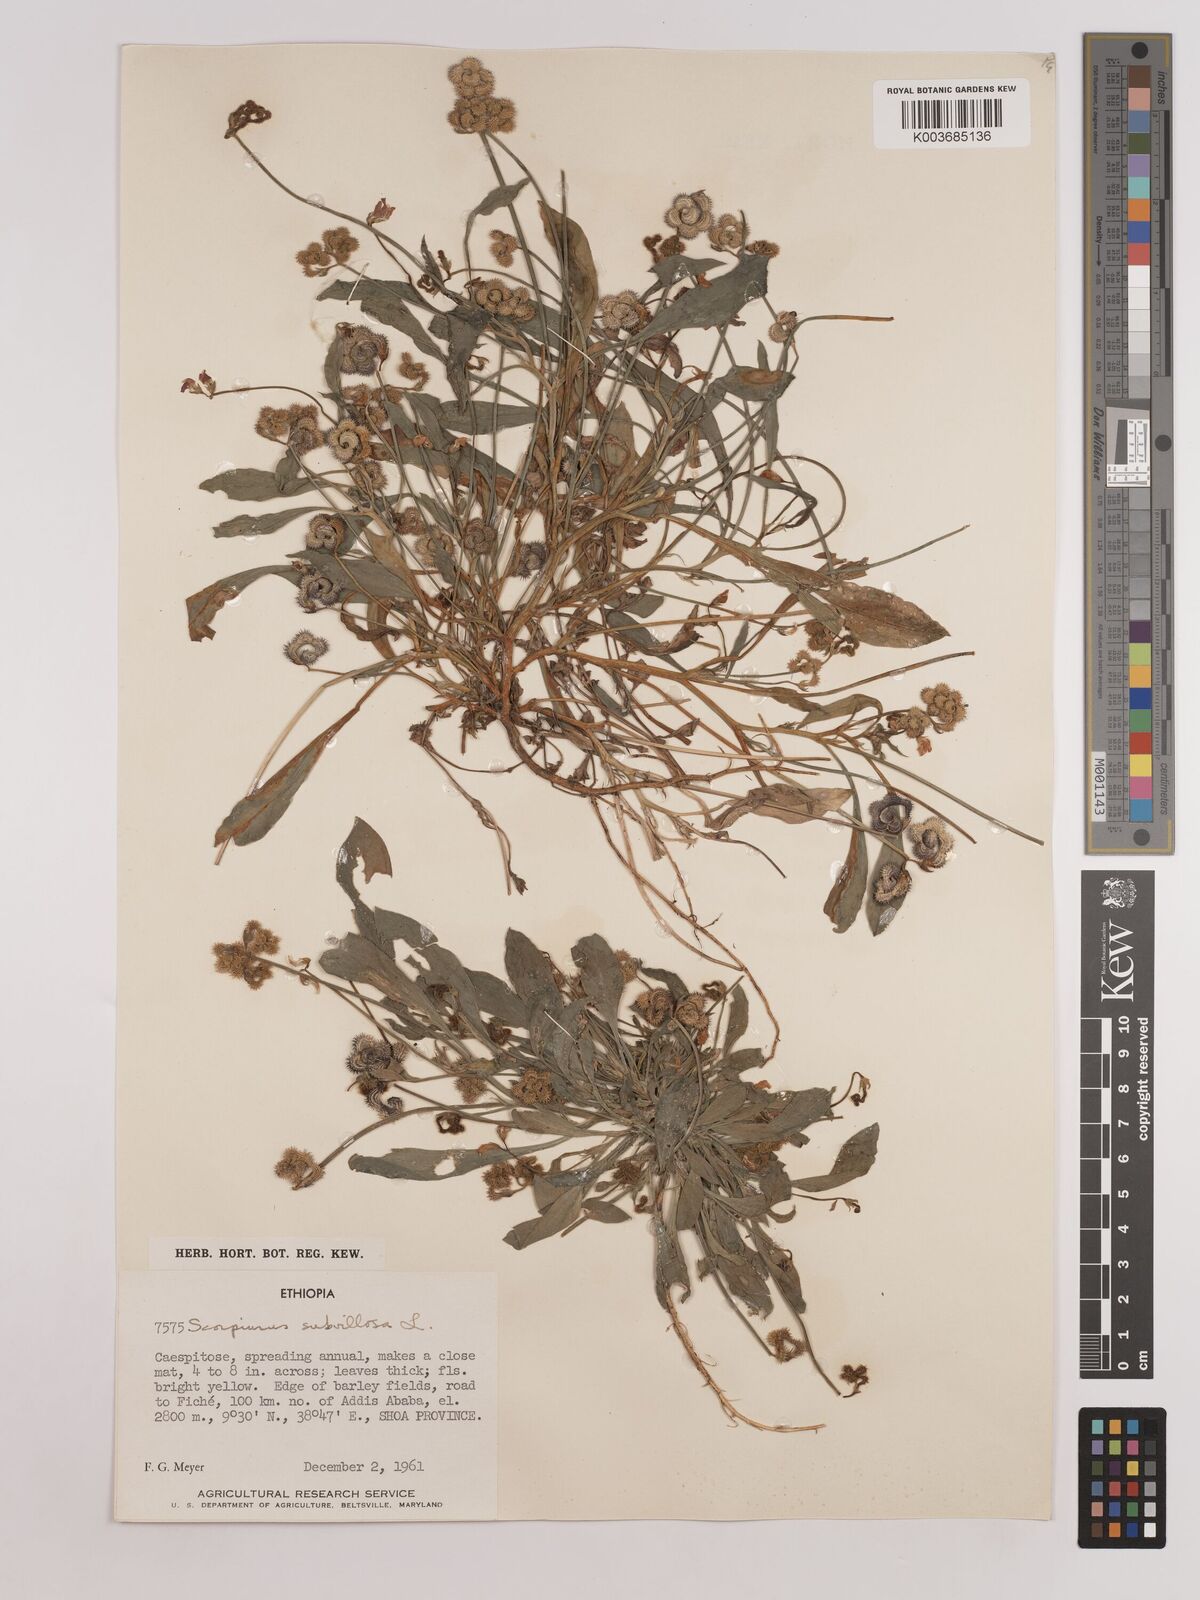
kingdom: Plantae
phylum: Tracheophyta
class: Magnoliopsida
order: Fabales
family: Fabaceae
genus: Scorpiurus
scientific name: Scorpiurus muricatus
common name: Caterpillar-plant
